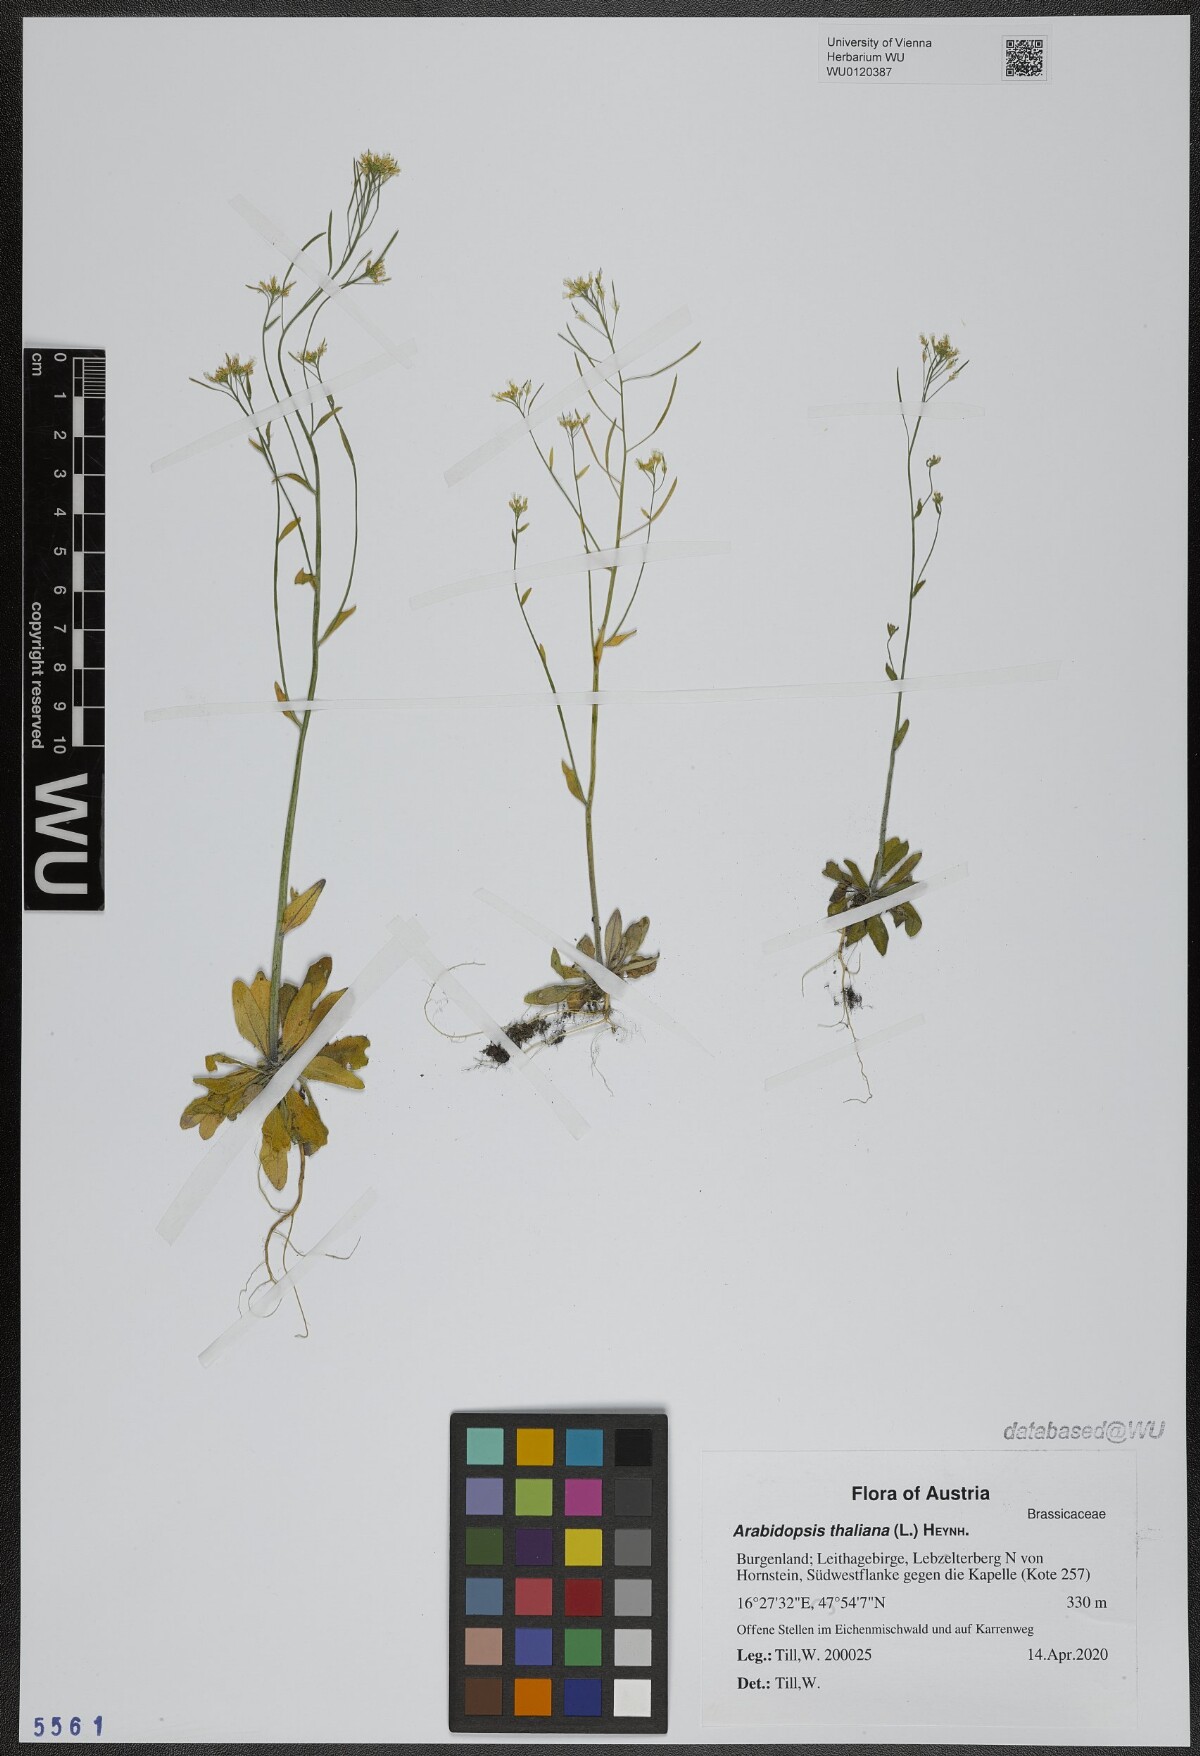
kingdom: Plantae
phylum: Tracheophyta
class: Magnoliopsida
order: Brassicales
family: Brassicaceae
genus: Arabidopsis
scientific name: Arabidopsis thaliana
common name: Thale cress
